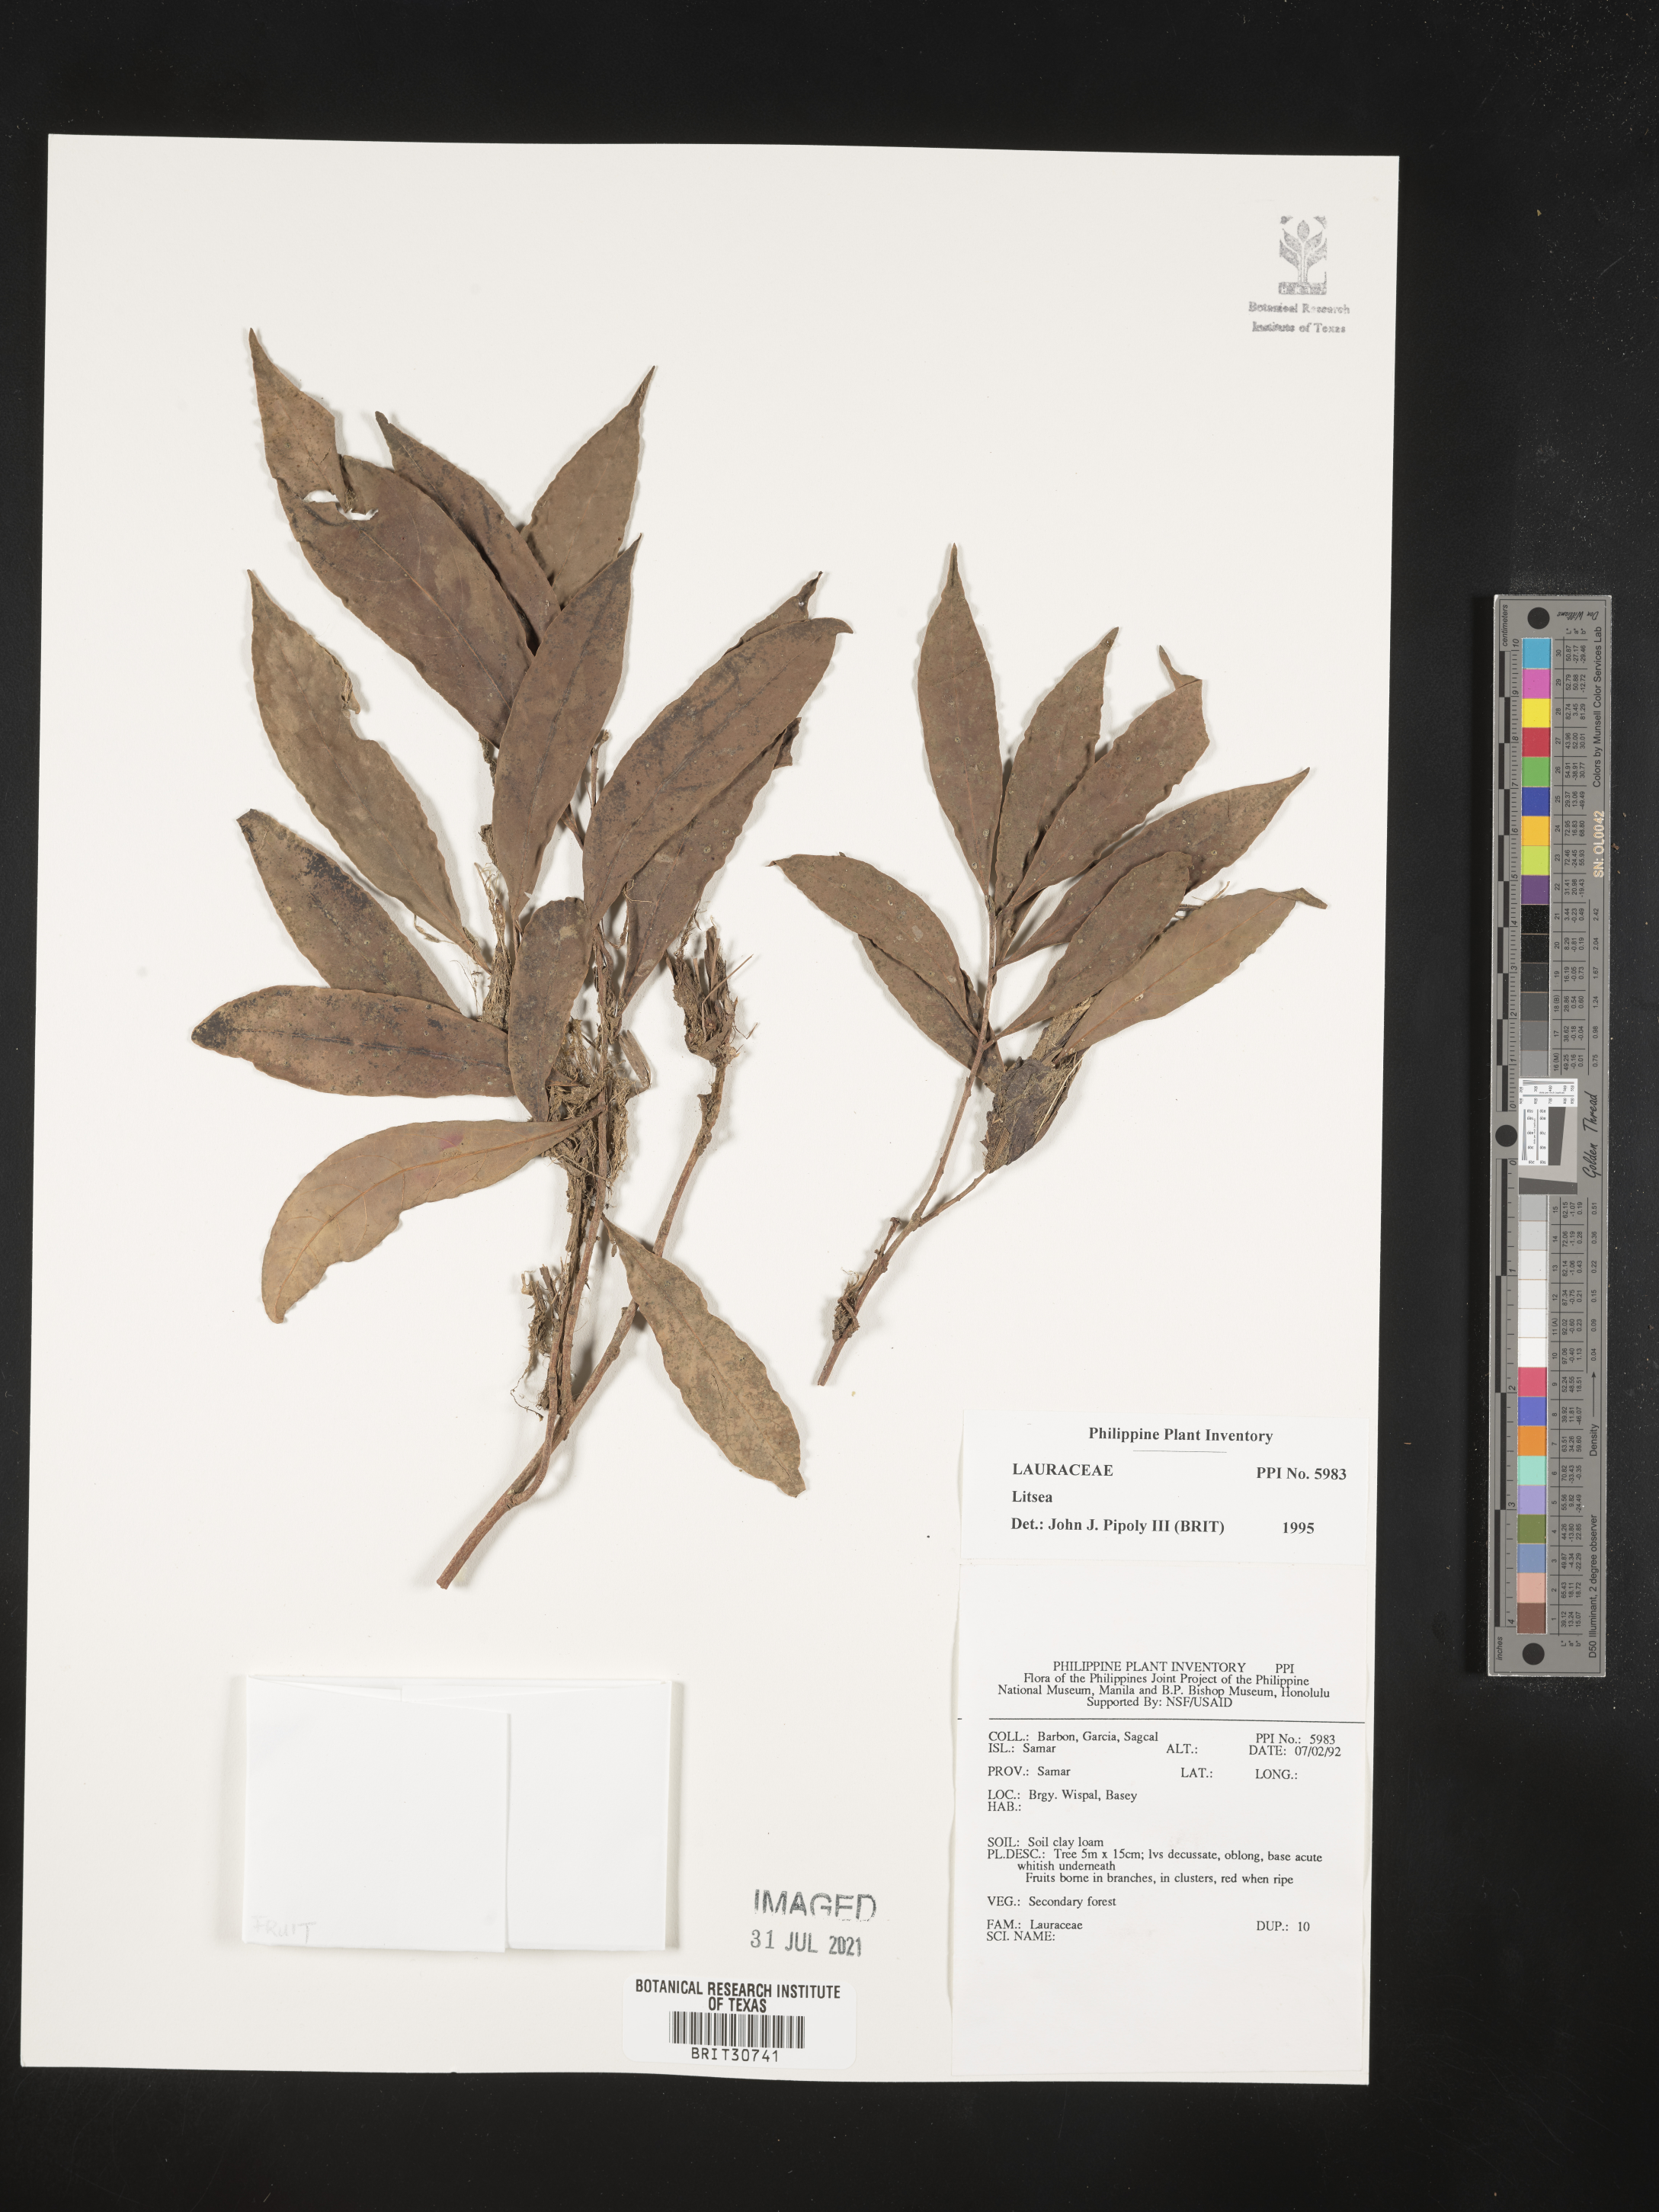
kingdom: Plantae
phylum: Tracheophyta
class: Magnoliopsida
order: Laurales
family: Lauraceae
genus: Litsea
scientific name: Litsea
